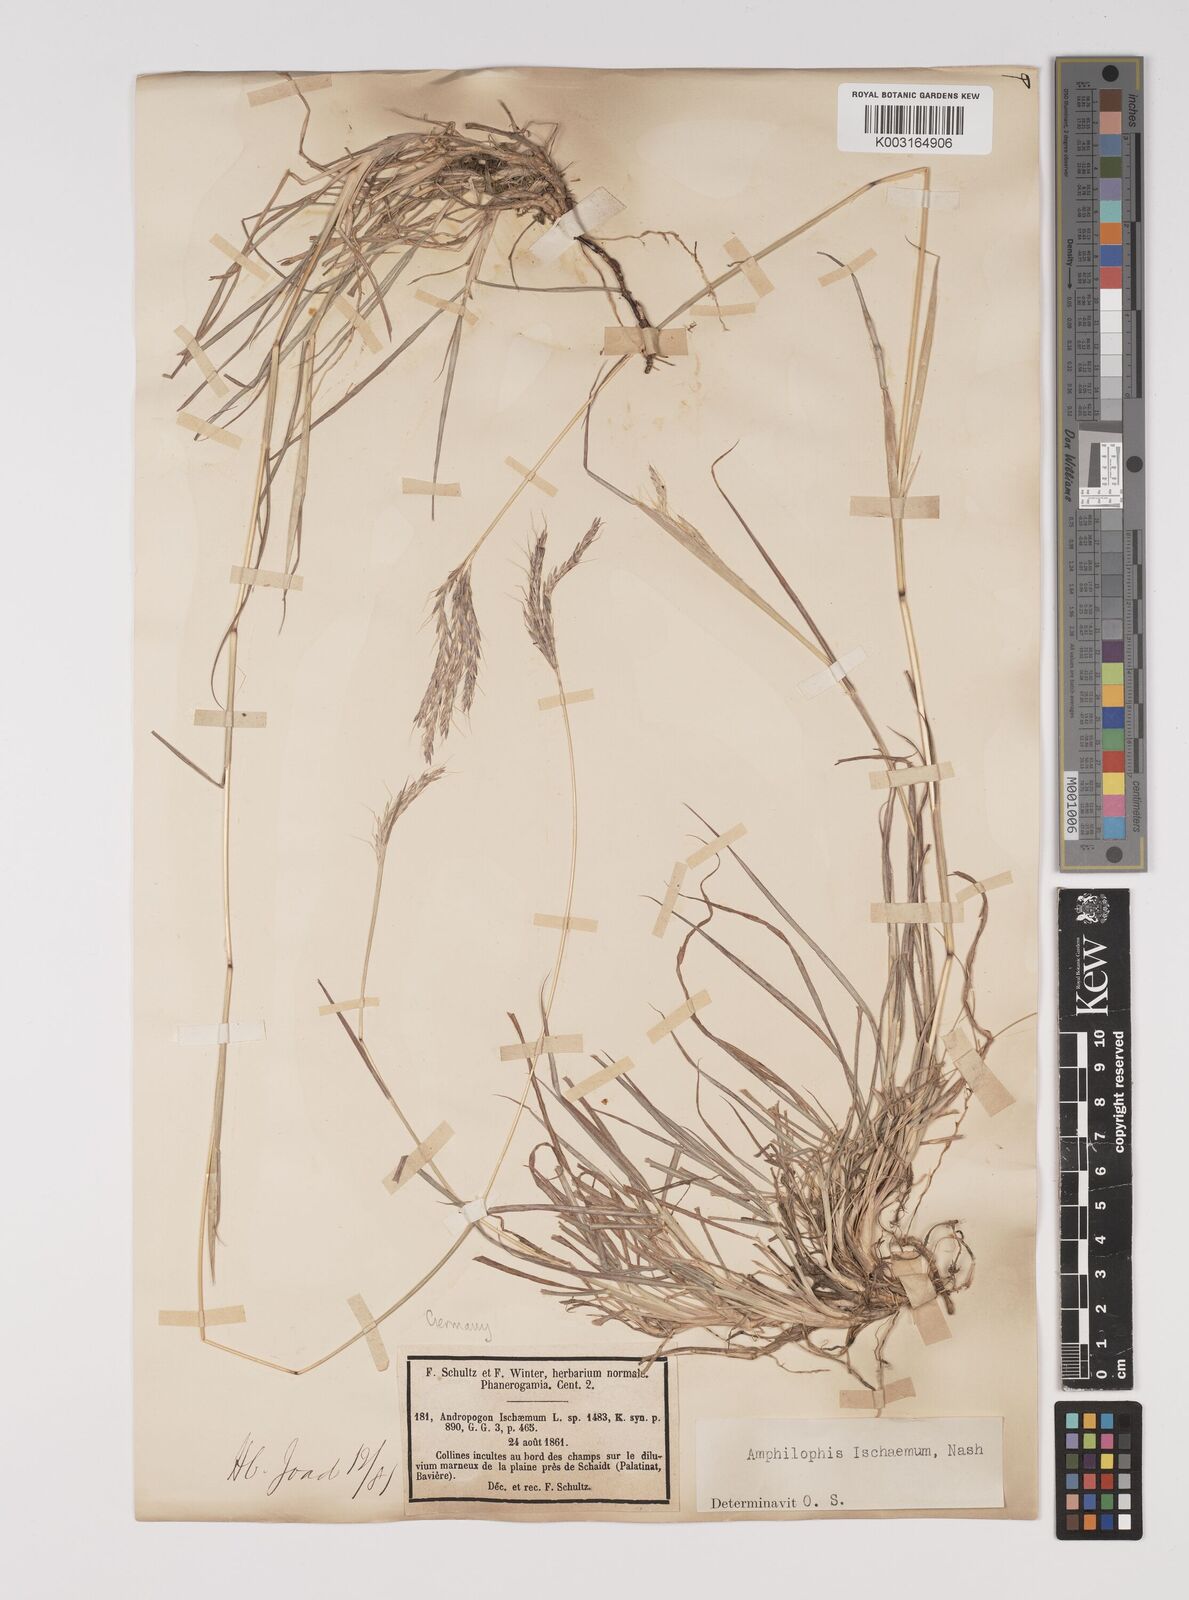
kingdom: Plantae
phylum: Tracheophyta
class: Liliopsida
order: Poales
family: Poaceae
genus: Bothriochloa
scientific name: Bothriochloa ischaemum
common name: Yellow bluestem
